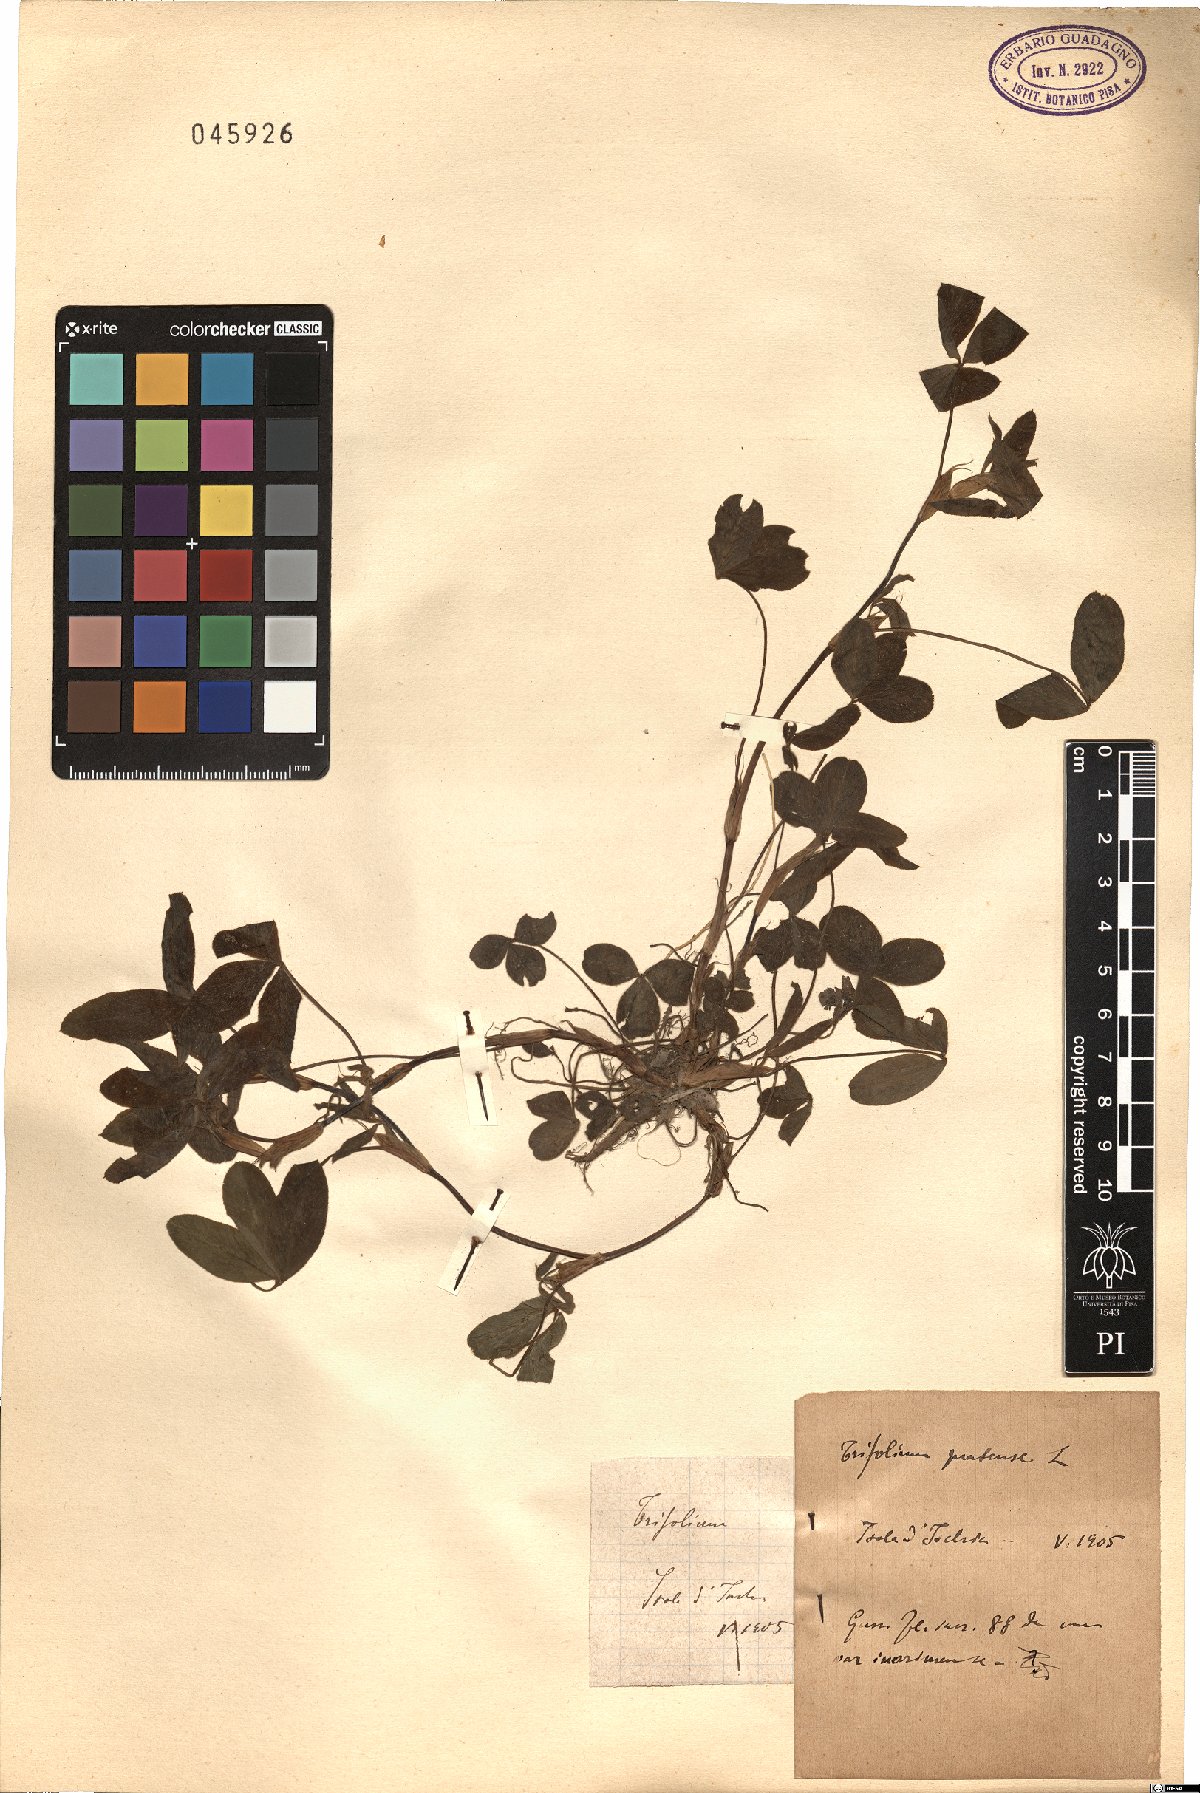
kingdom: Plantae
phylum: Tracheophyta
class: Magnoliopsida
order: Fabales
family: Fabaceae
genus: Trifolium
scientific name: Trifolium pratense
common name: Red clover
